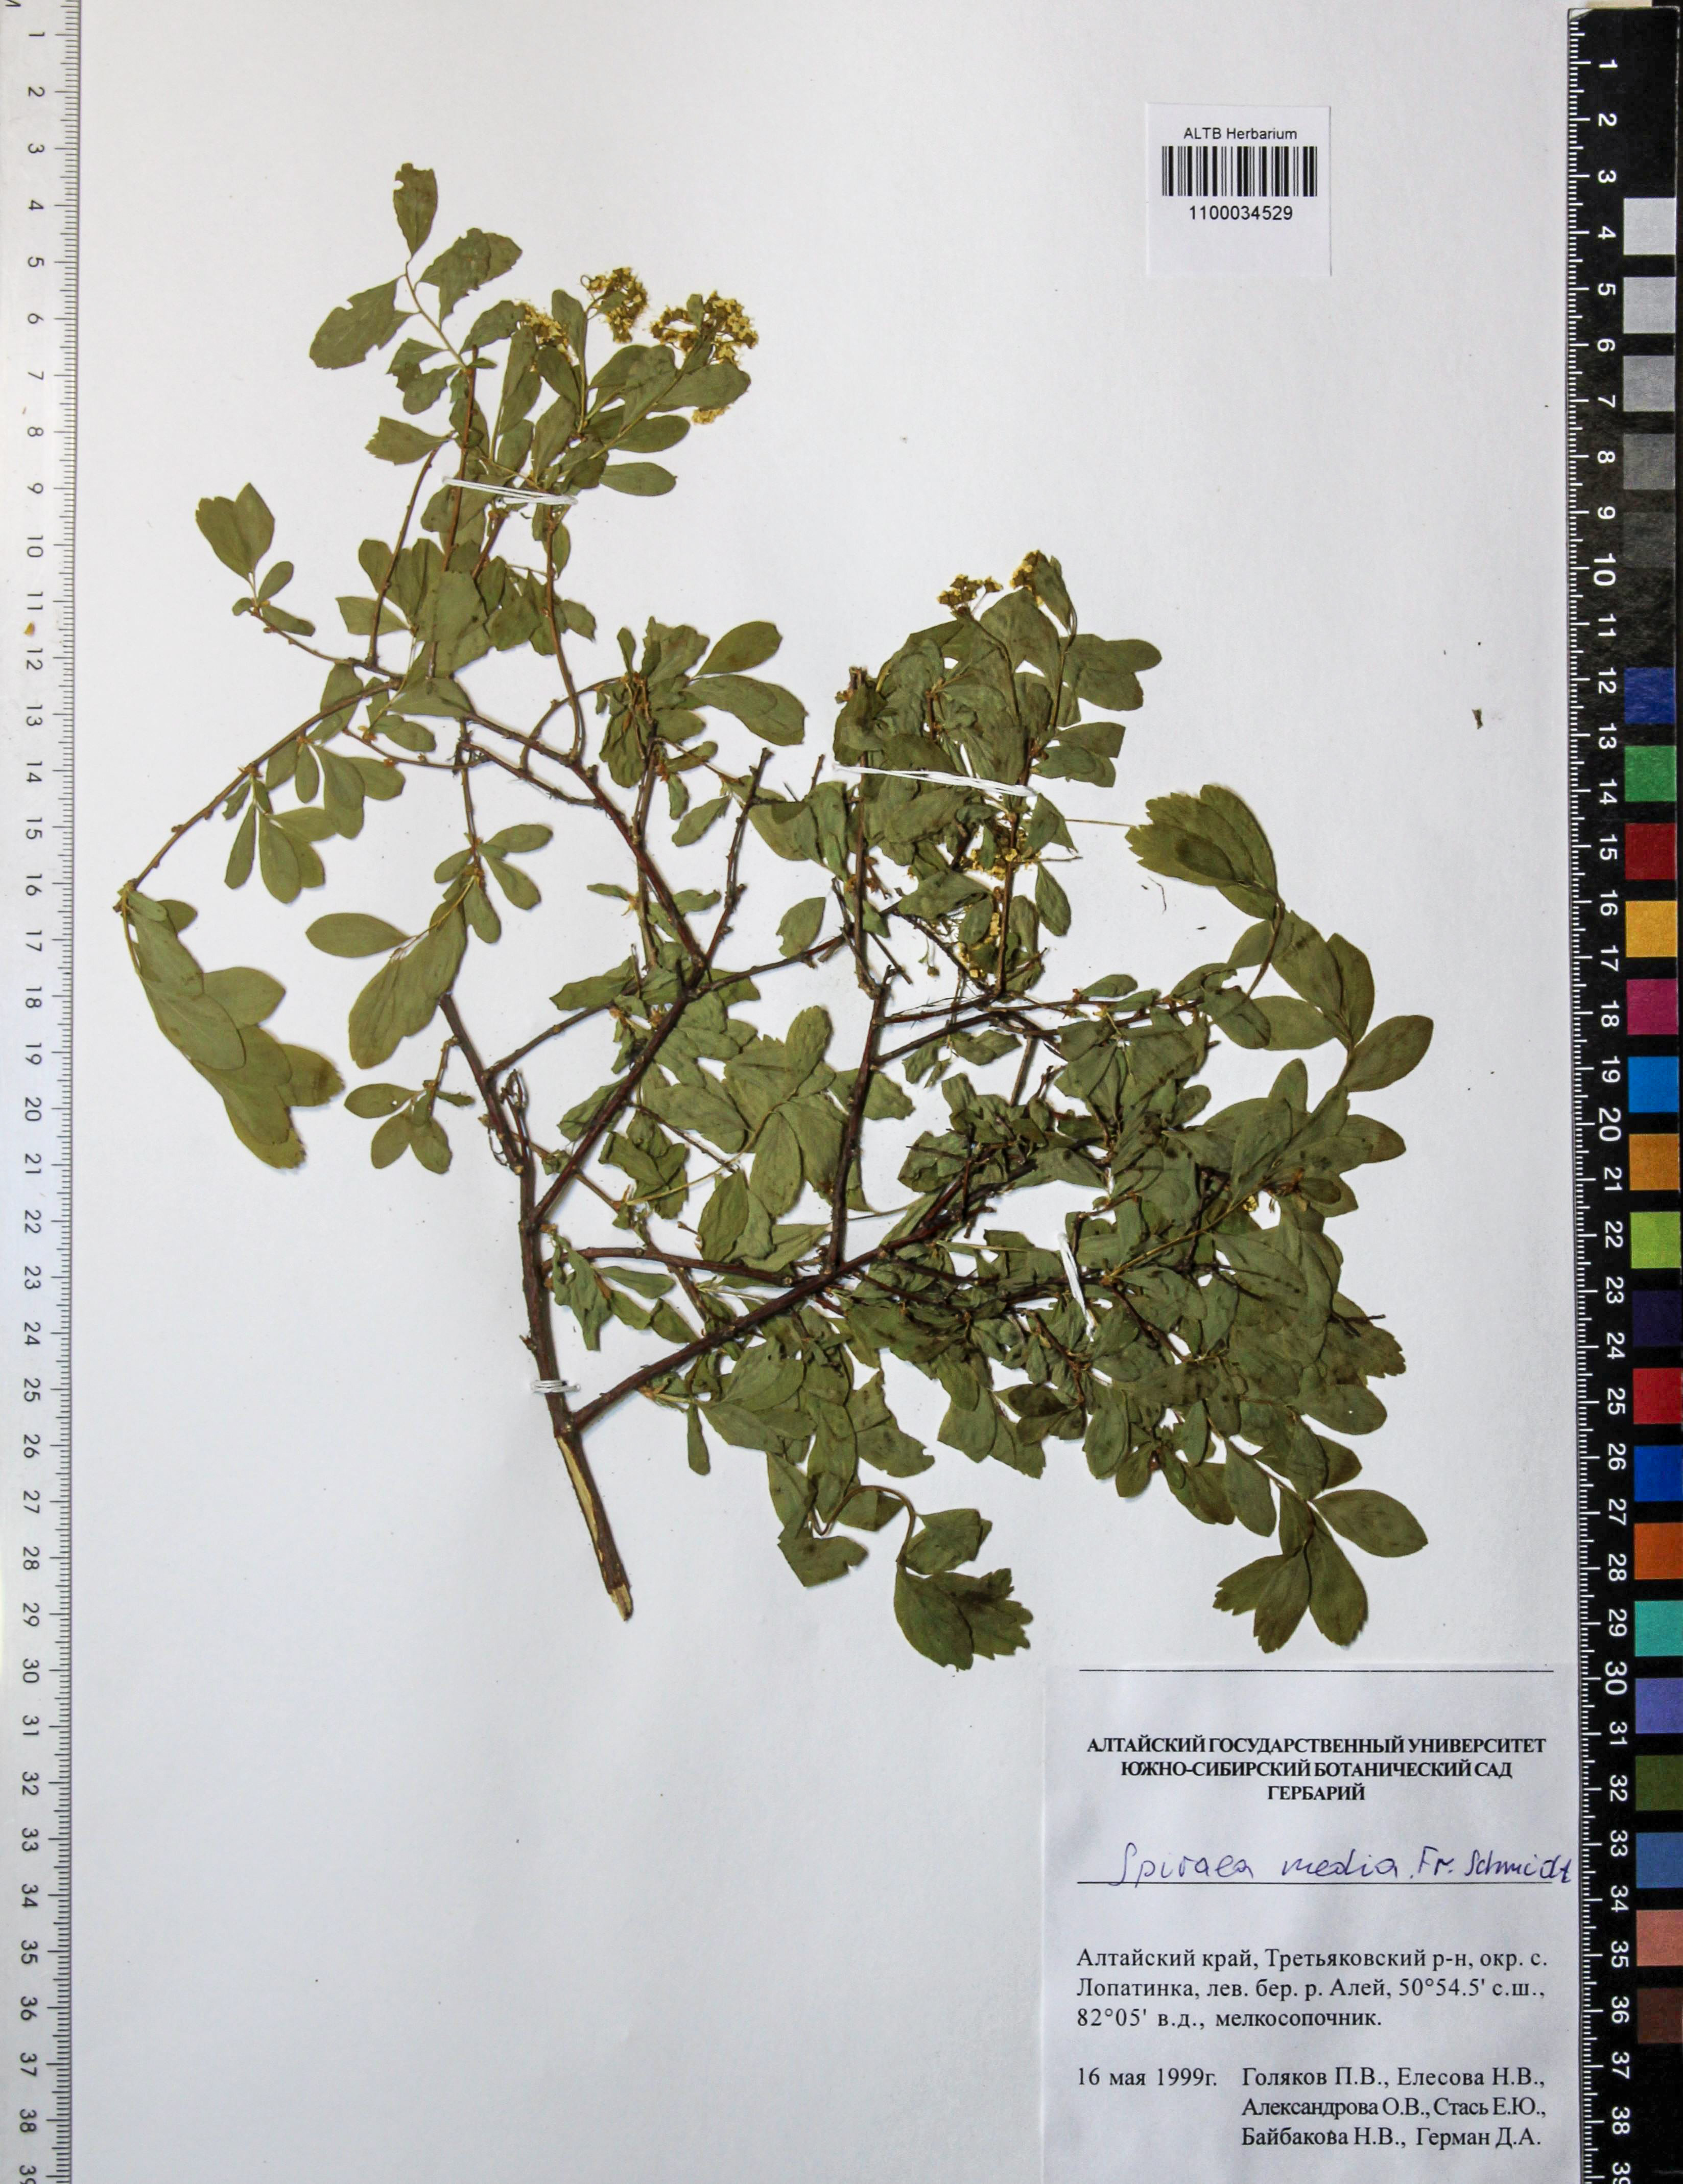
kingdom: Plantae
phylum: Tracheophyta
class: Magnoliopsida
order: Rosales
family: Rosaceae
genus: Spiraea
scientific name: Spiraea media
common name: Russian spiraea
